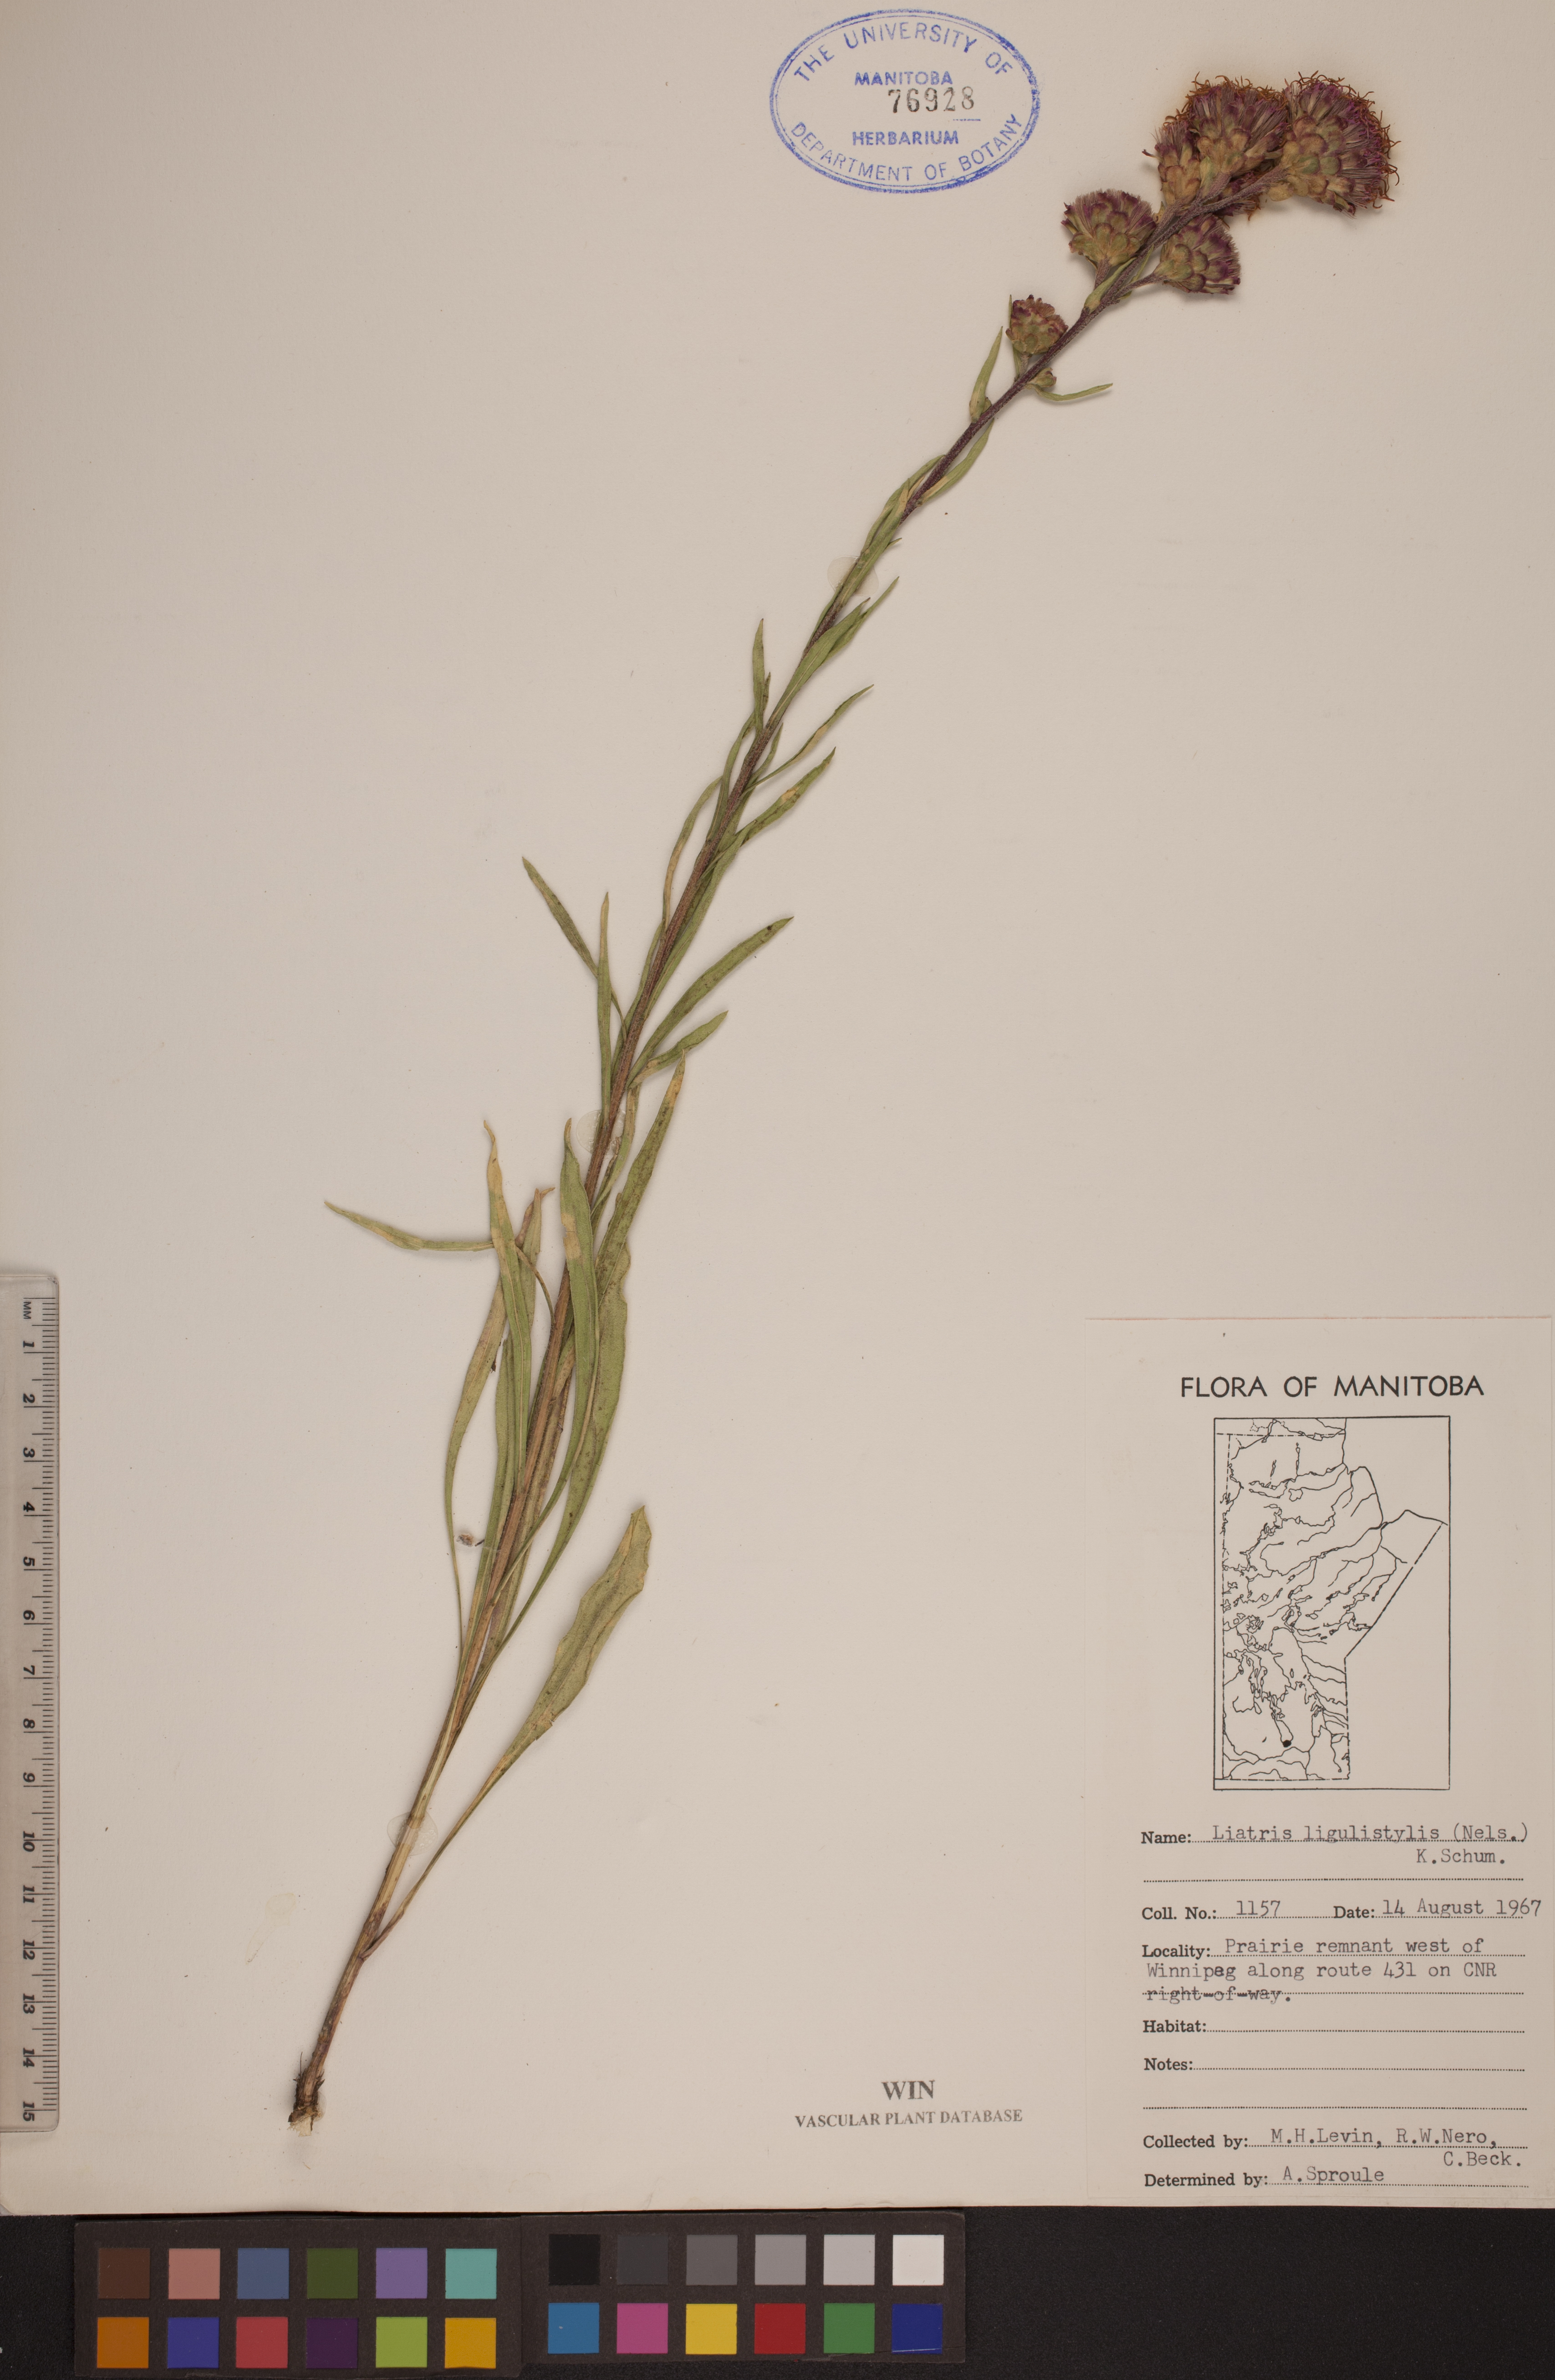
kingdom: Plantae
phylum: Tracheophyta
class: Magnoliopsida
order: Asterales
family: Asteraceae
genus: Liatris
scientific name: Liatris ligulistylis
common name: Northern plains gayfeather
